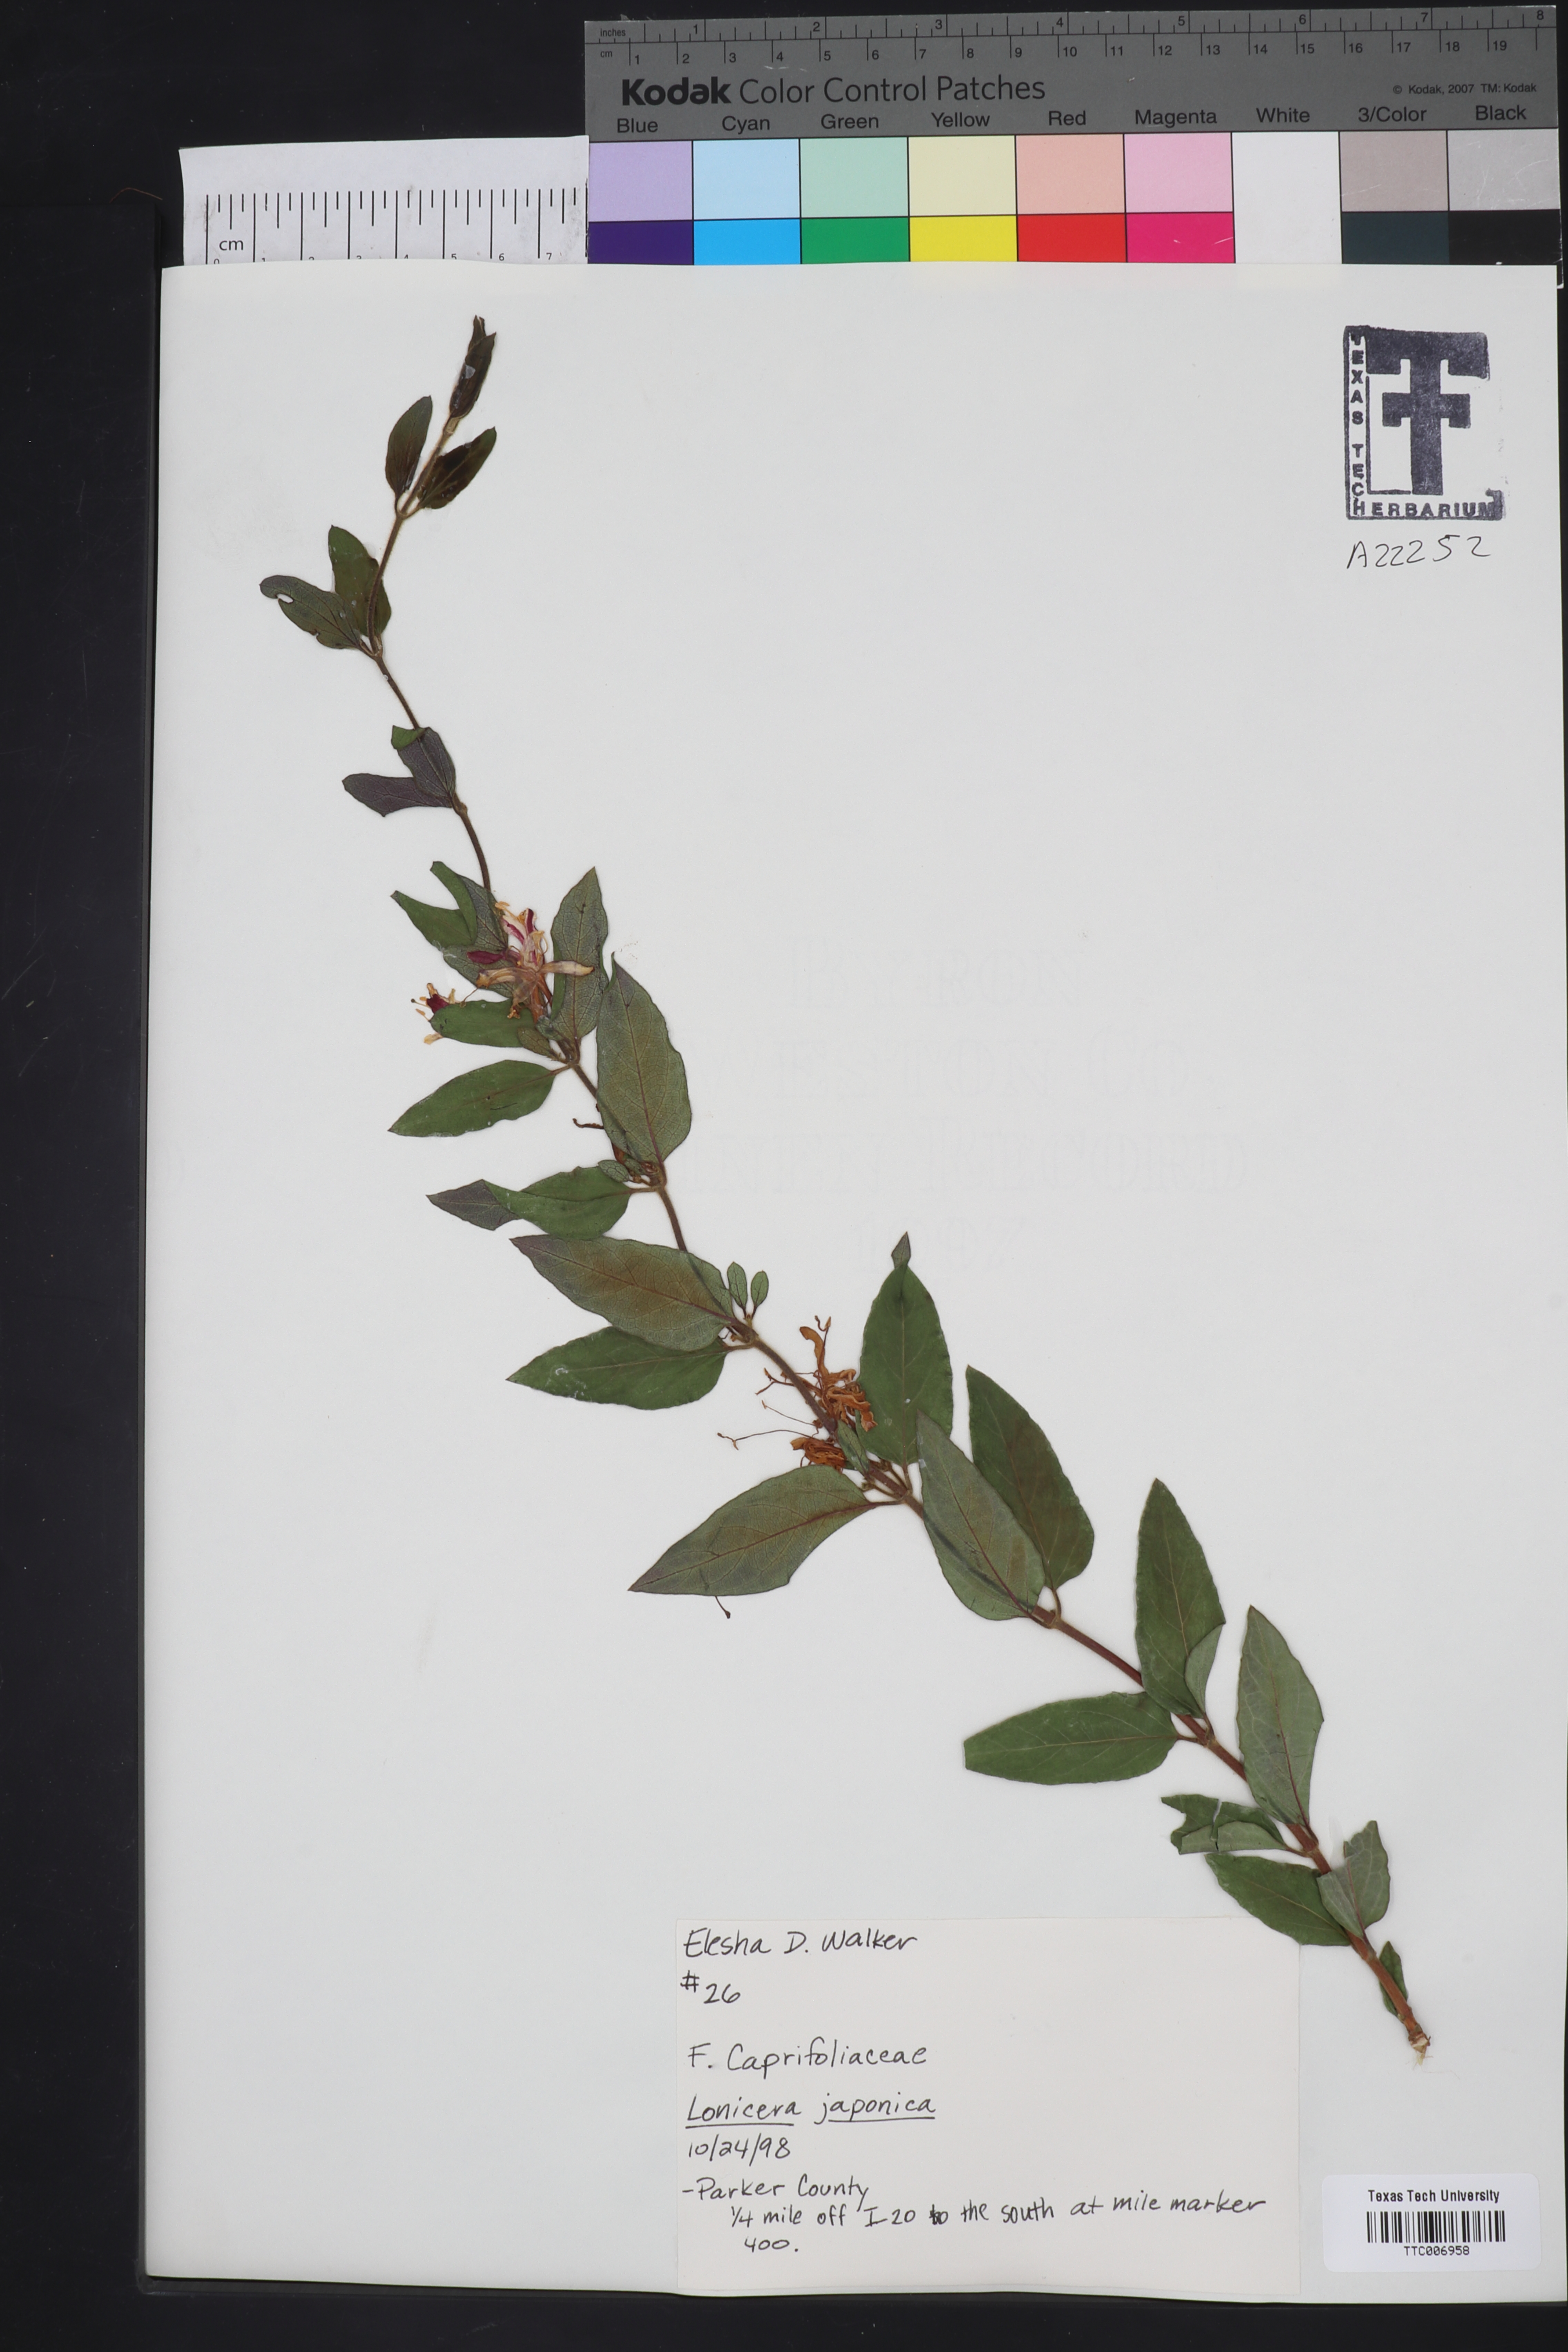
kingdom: Plantae
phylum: Tracheophyta
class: Magnoliopsida
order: Dipsacales
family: Caprifoliaceae
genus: Lonicera
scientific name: Lonicera japonica
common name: Japanese honeysuckle
